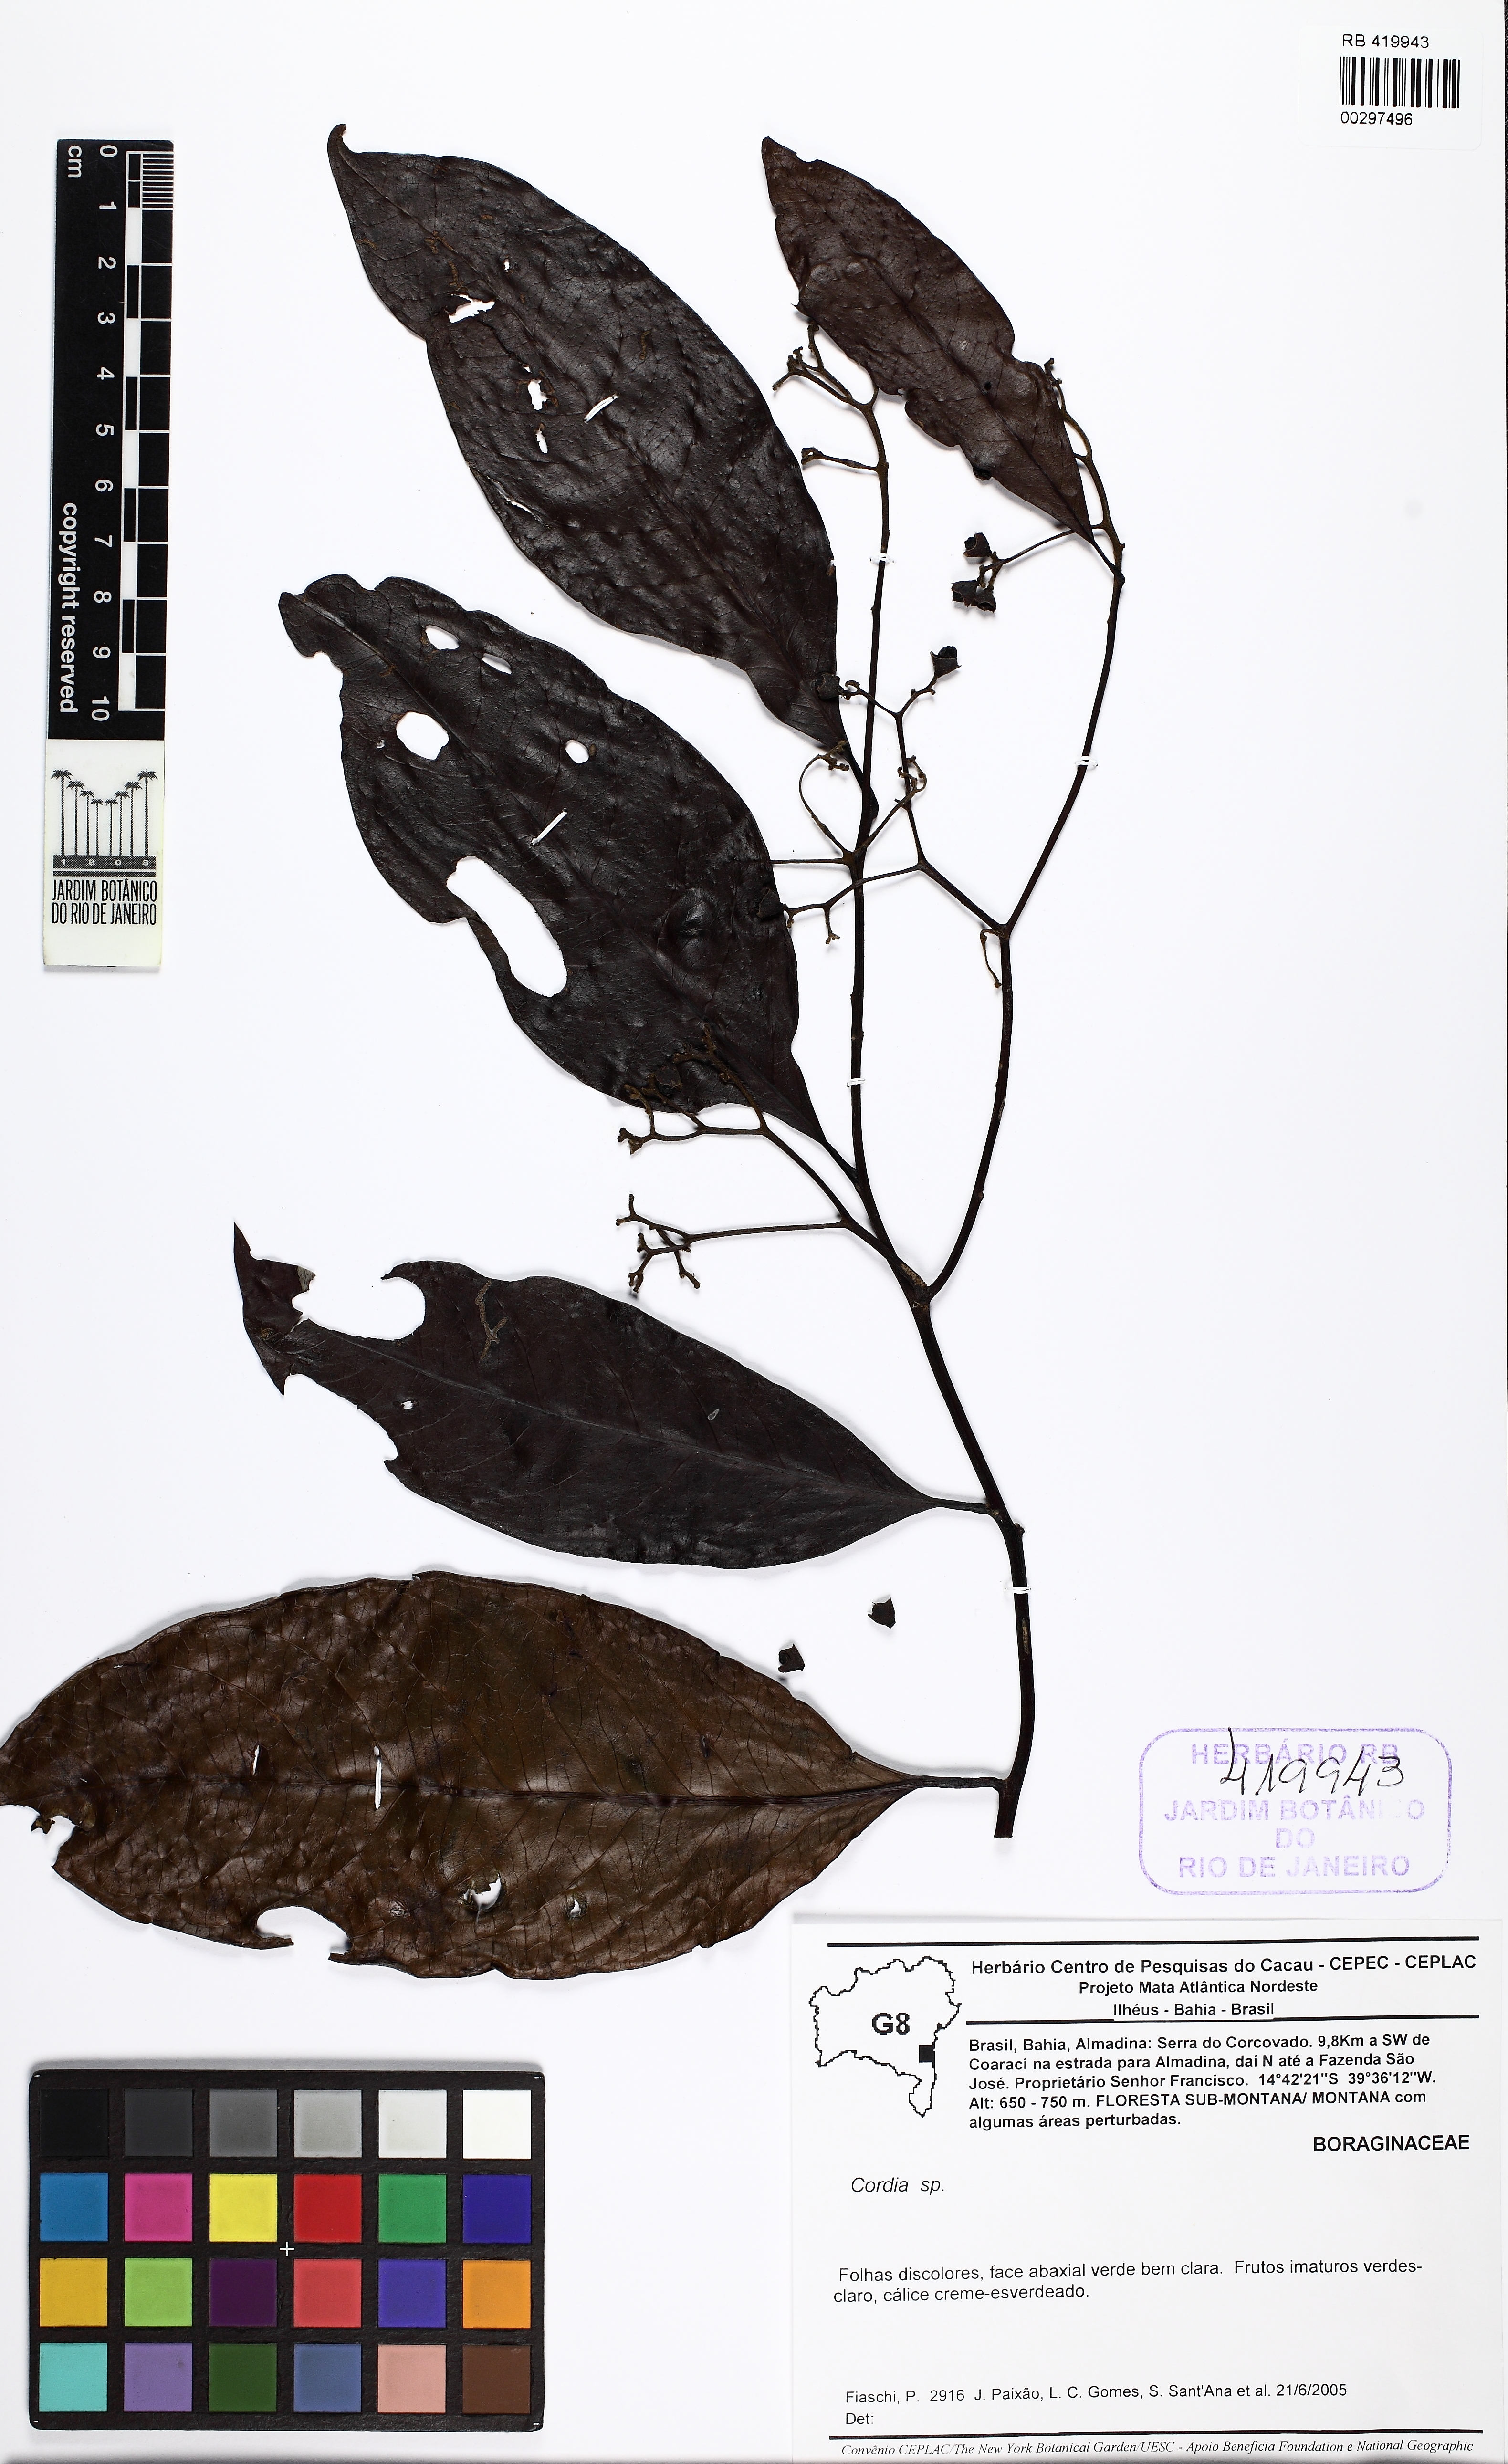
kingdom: Plantae
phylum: Tracheophyta
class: Magnoliopsida
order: Boraginales
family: Cordiaceae
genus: Cordia
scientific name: Cordia
